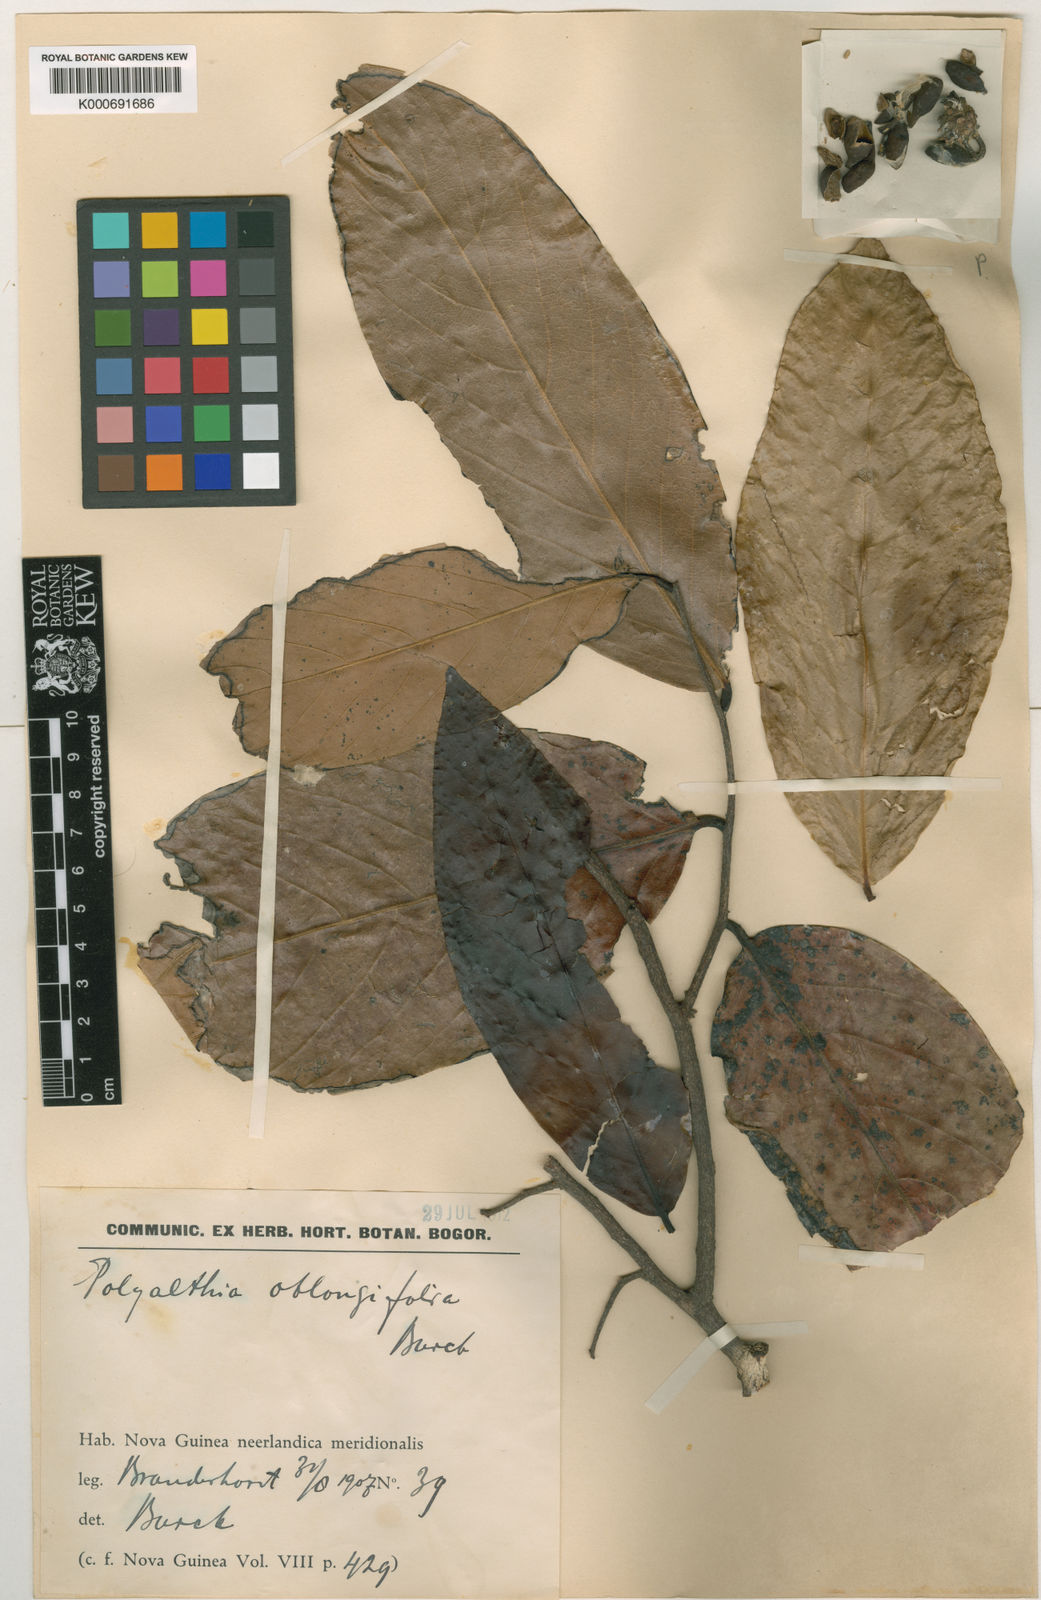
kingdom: Plantae
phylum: Tracheophyta
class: Magnoliopsida
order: Magnoliales
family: Annonaceae
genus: Polyalthia
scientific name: Polyalthia oblongifolia
